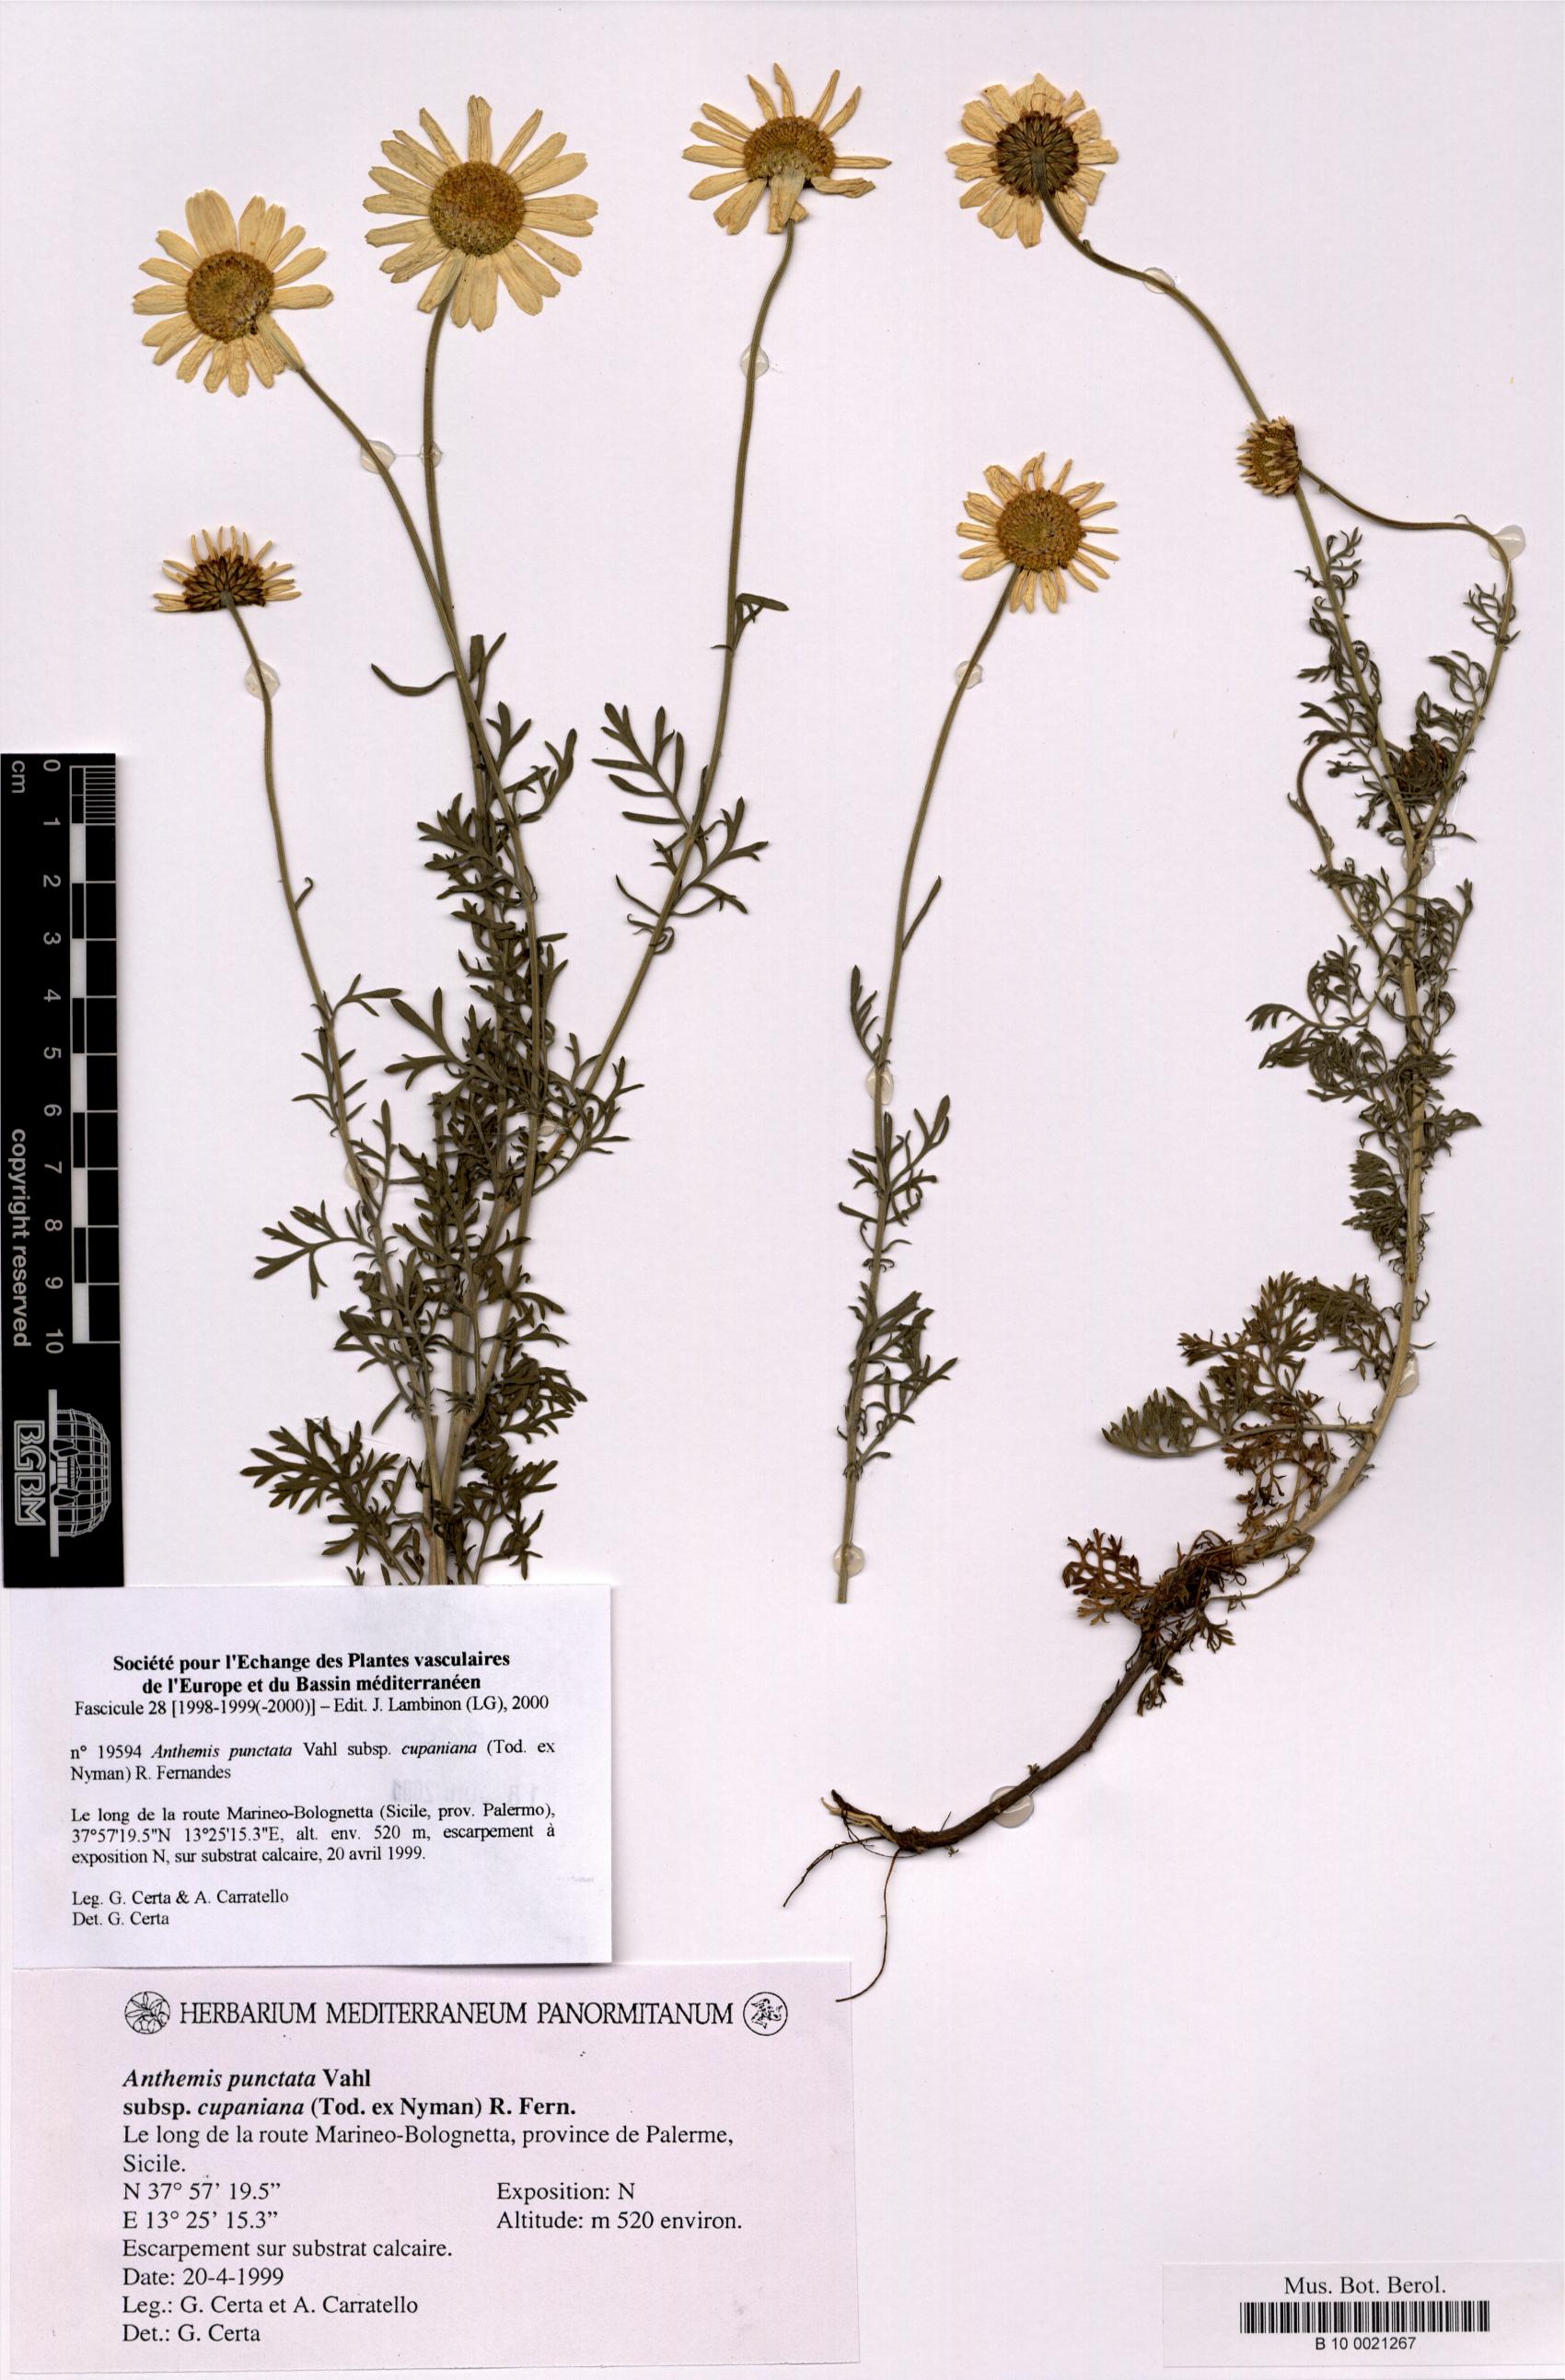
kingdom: Plantae
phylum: Tracheophyta
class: Magnoliopsida
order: Asterales
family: Asteraceae
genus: Anthemis
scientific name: Anthemis cupaniana
